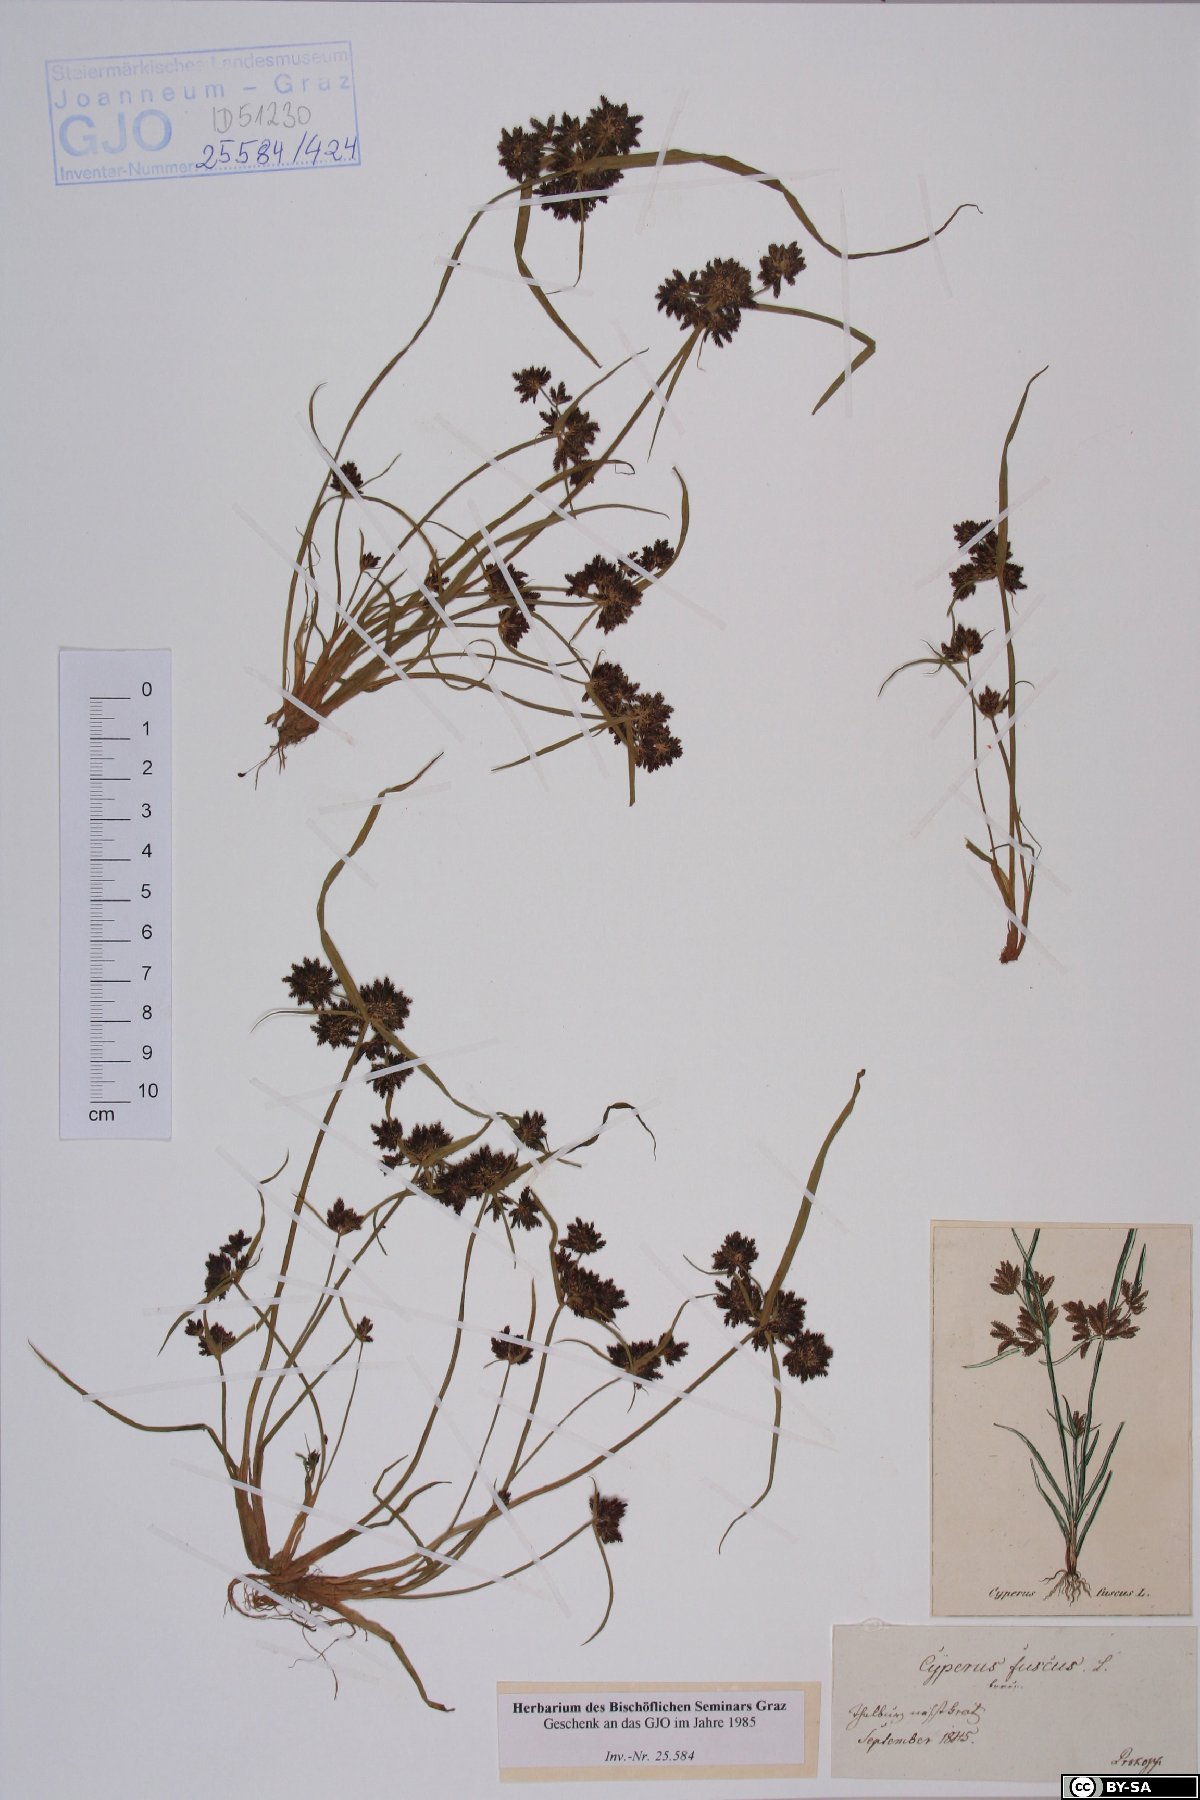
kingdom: Plantae
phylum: Tracheophyta
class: Liliopsida
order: Poales
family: Cyperaceae
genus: Cyperus
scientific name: Cyperus fuscus
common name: Brown galingale
